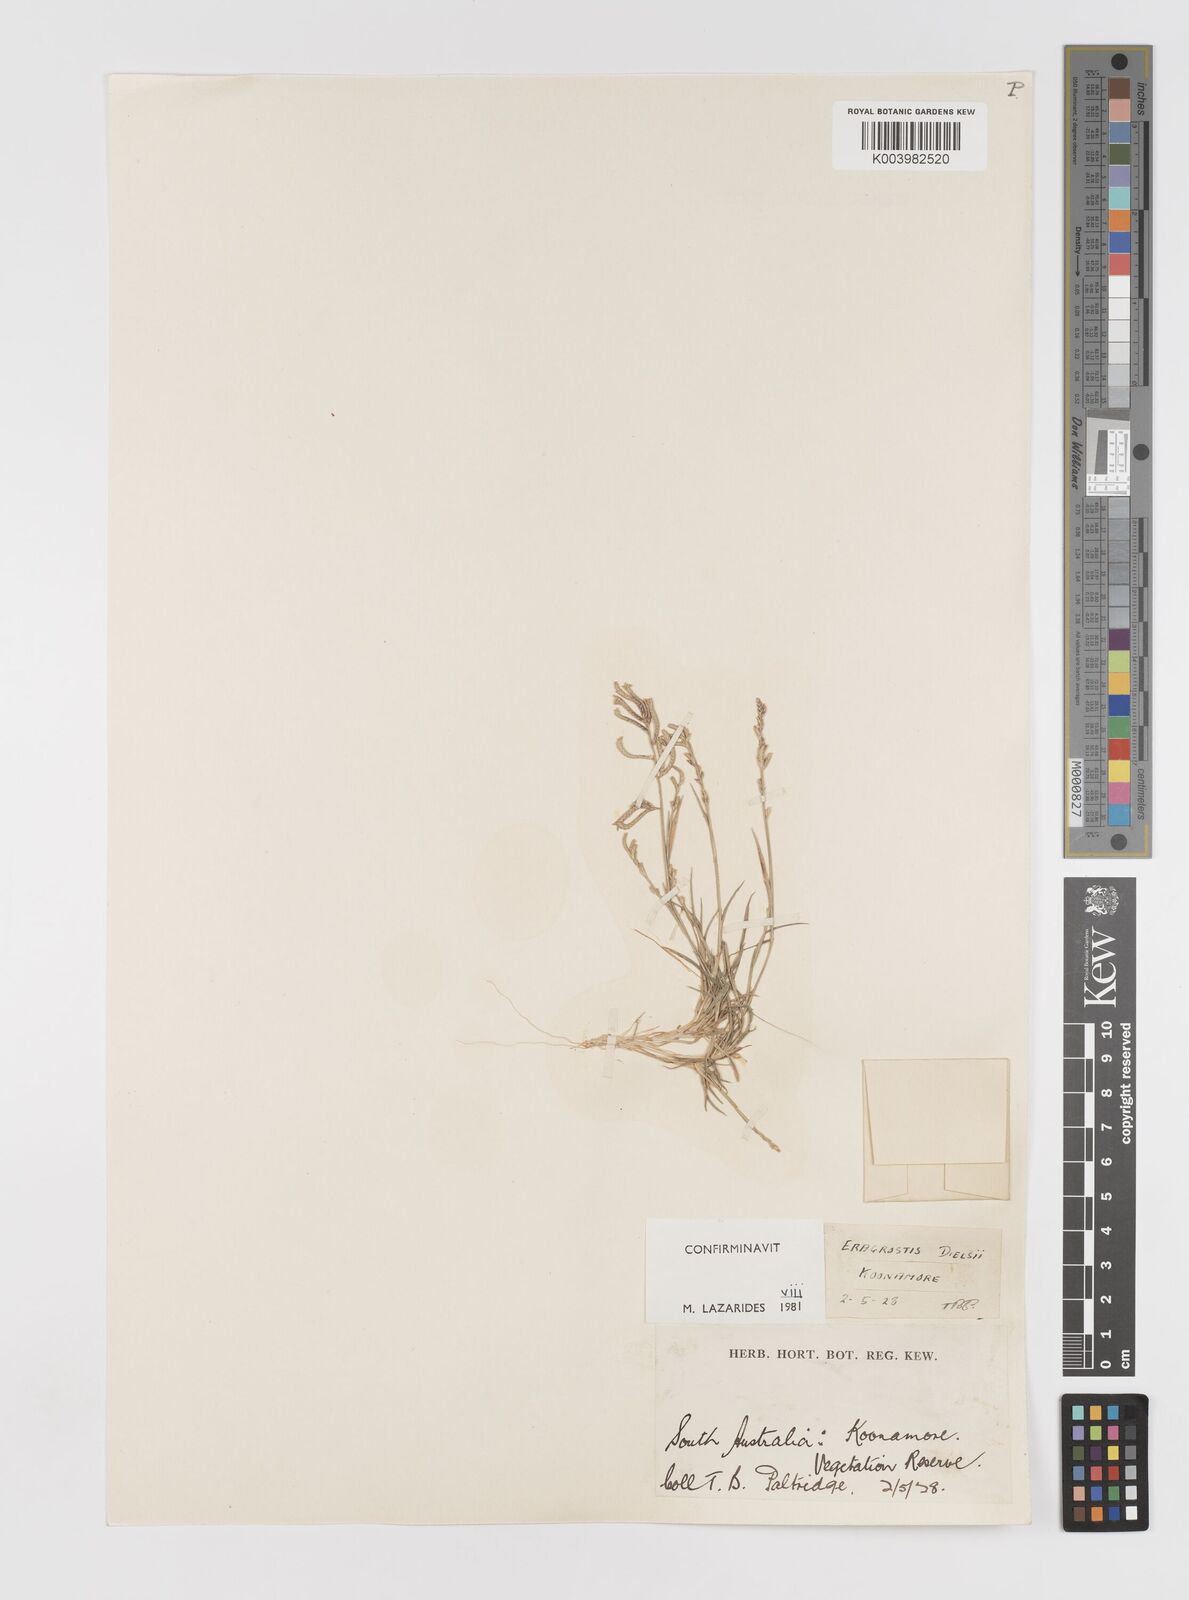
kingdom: Plantae
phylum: Tracheophyta
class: Liliopsida
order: Poales
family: Poaceae
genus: Eragrostis
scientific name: Eragrostis dielsii
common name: Lovegrass
